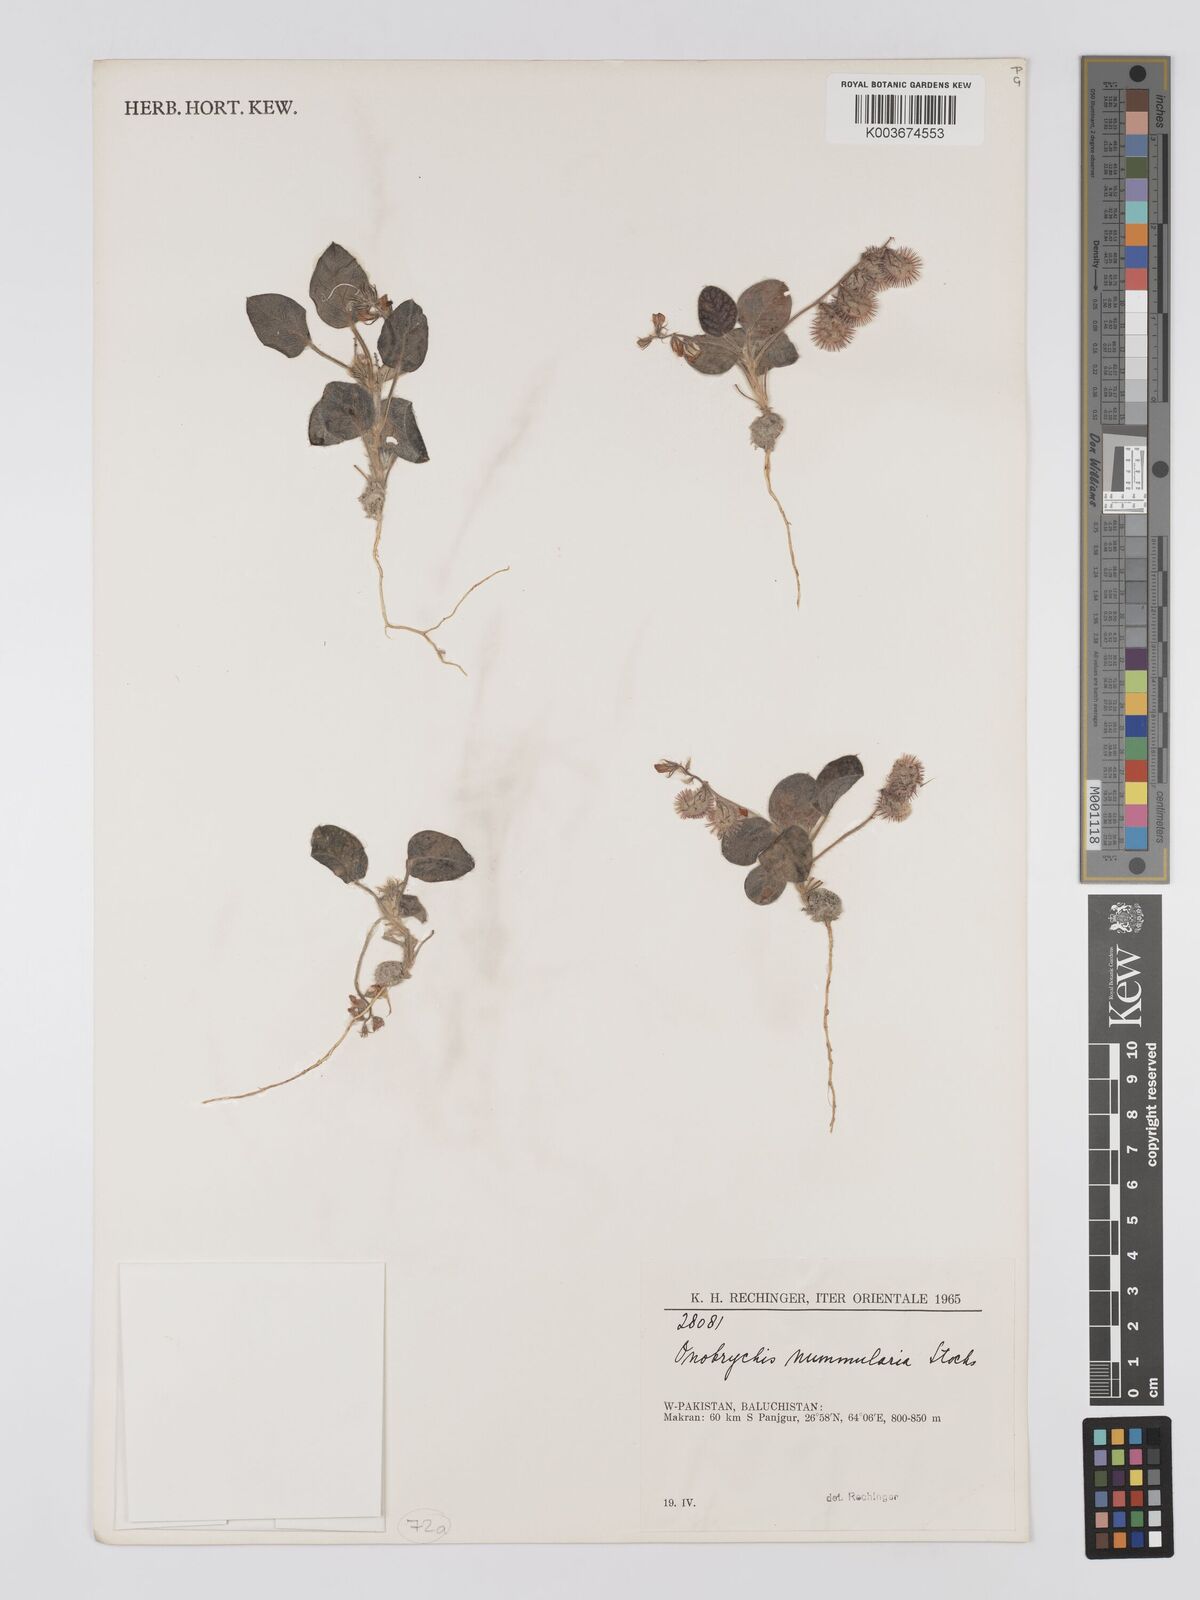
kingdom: Plantae
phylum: Tracheophyta
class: Magnoliopsida
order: Fabales
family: Fabaceae
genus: Onobrychis
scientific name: Onobrychis
